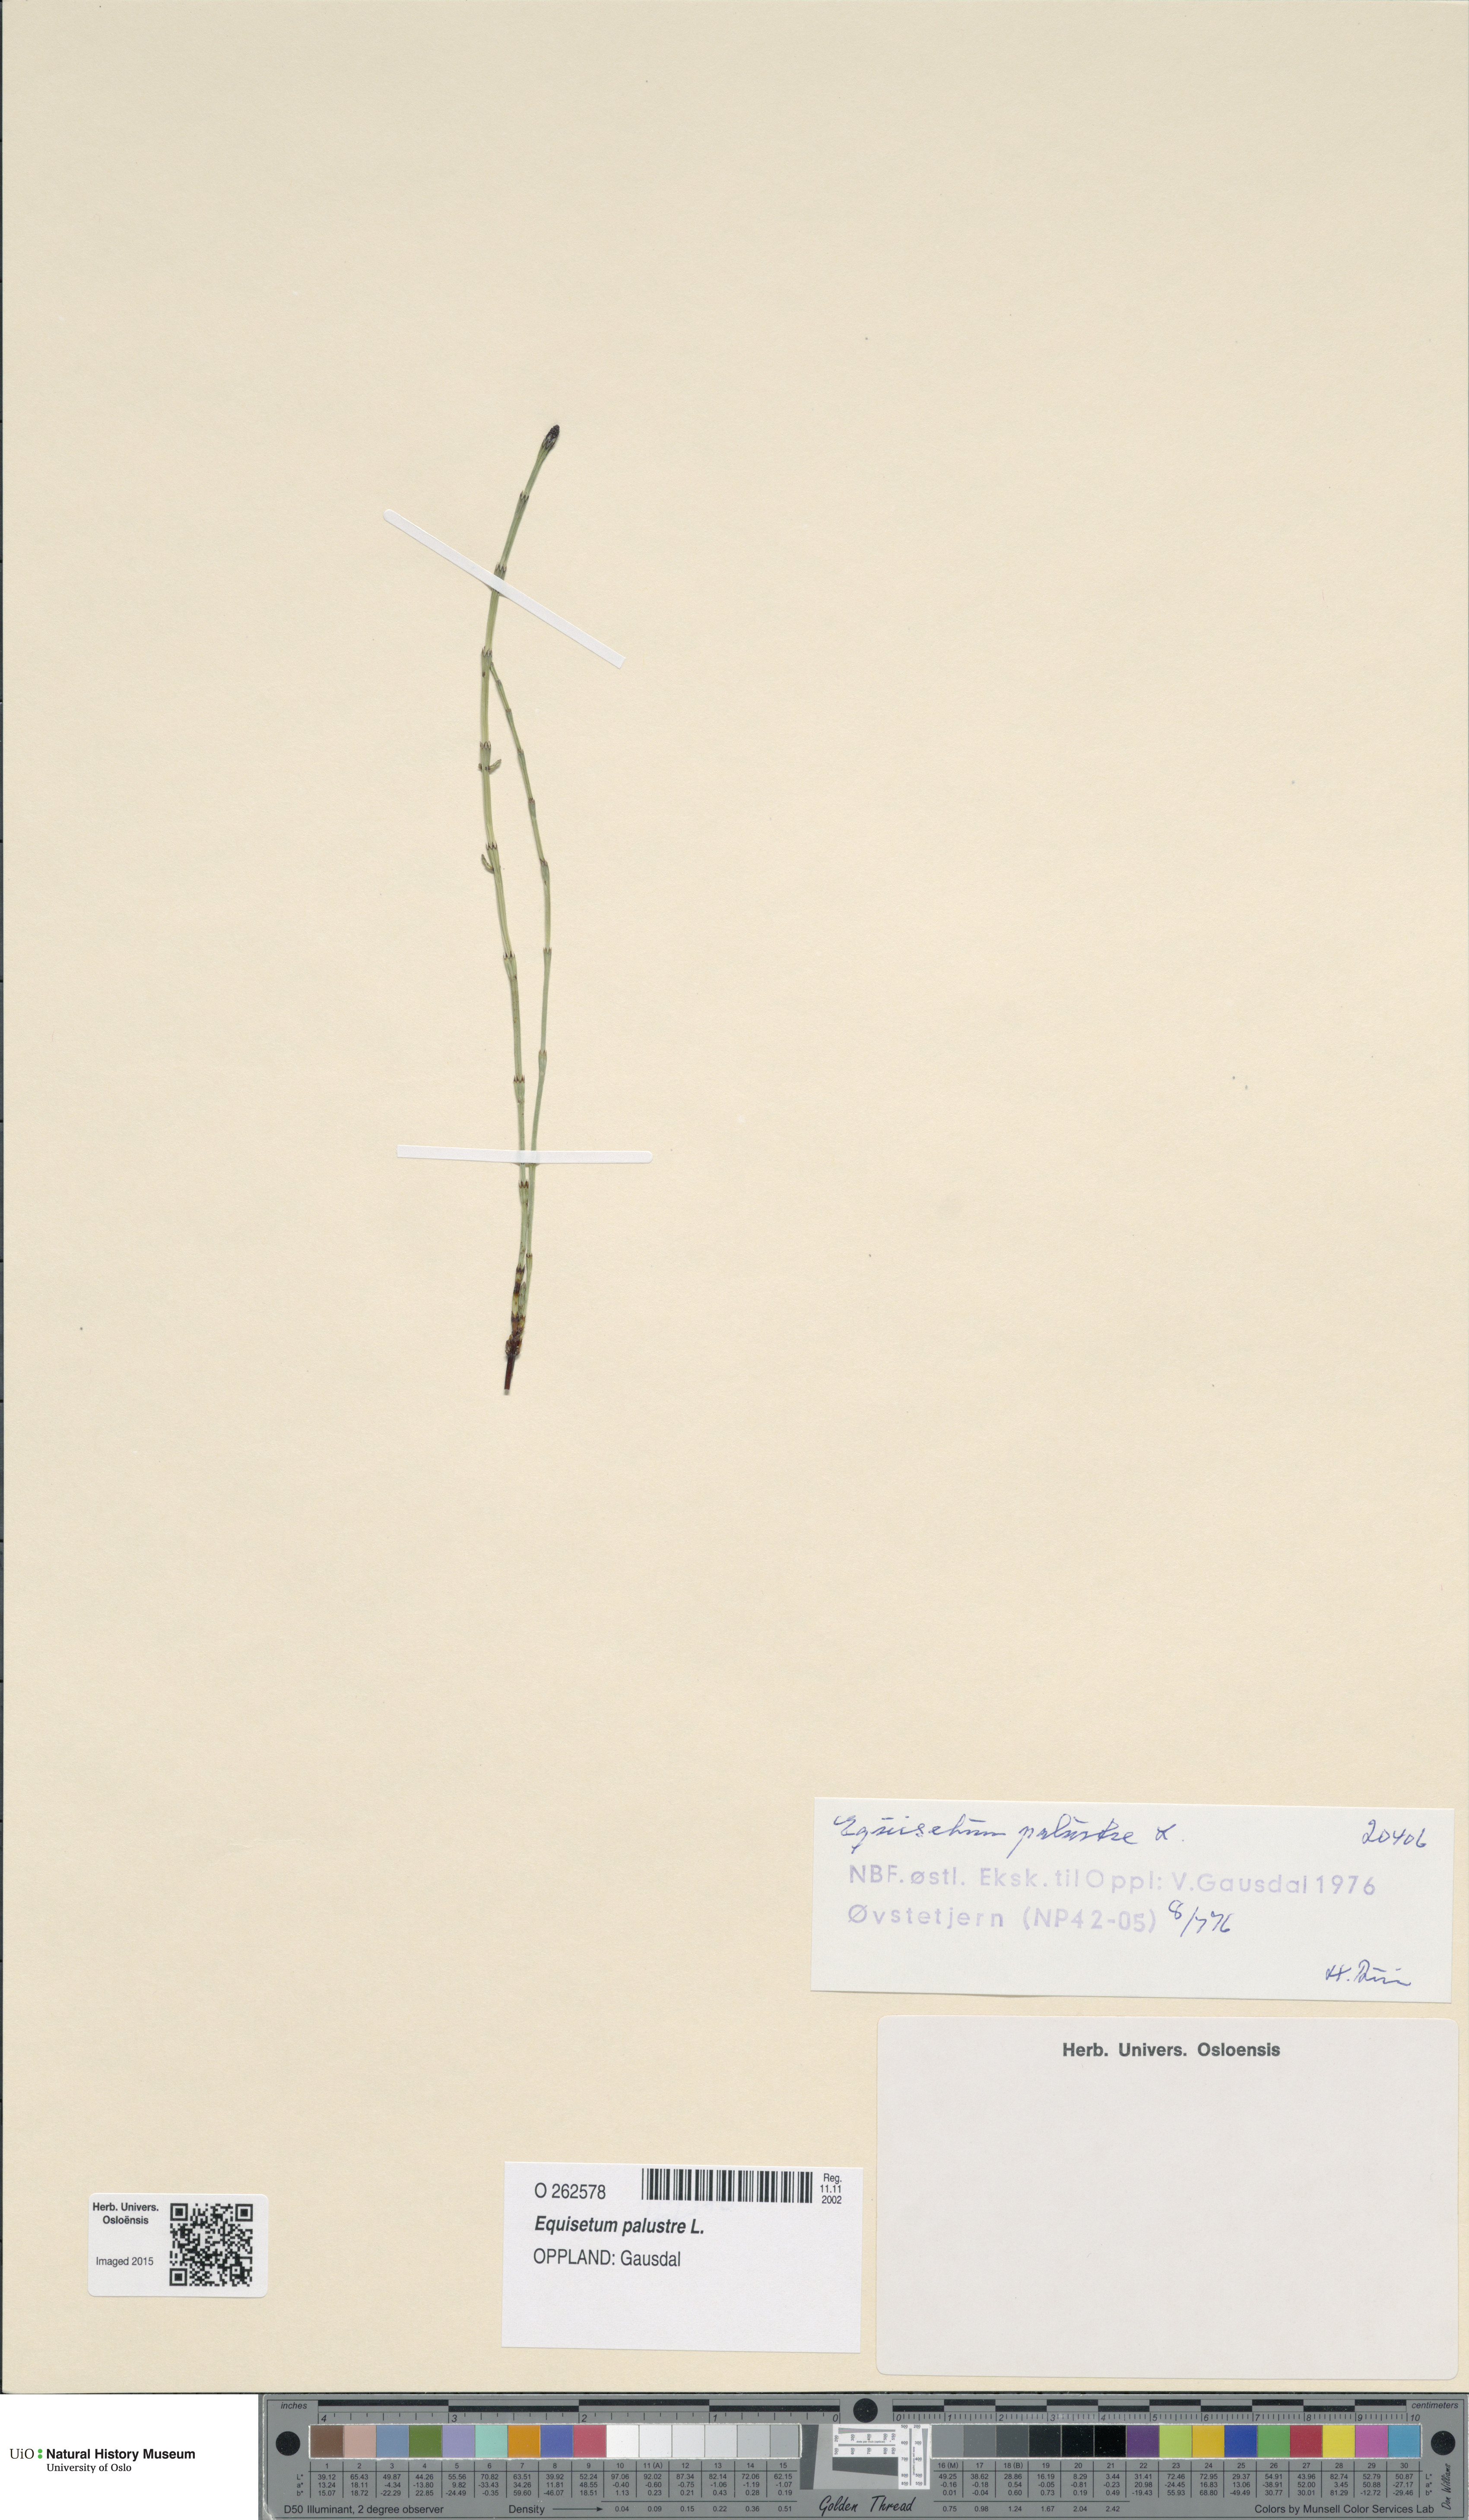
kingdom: Plantae
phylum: Tracheophyta
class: Polypodiopsida
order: Equisetales
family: Equisetaceae
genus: Equisetum
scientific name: Equisetum palustre
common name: Marsh horsetail
